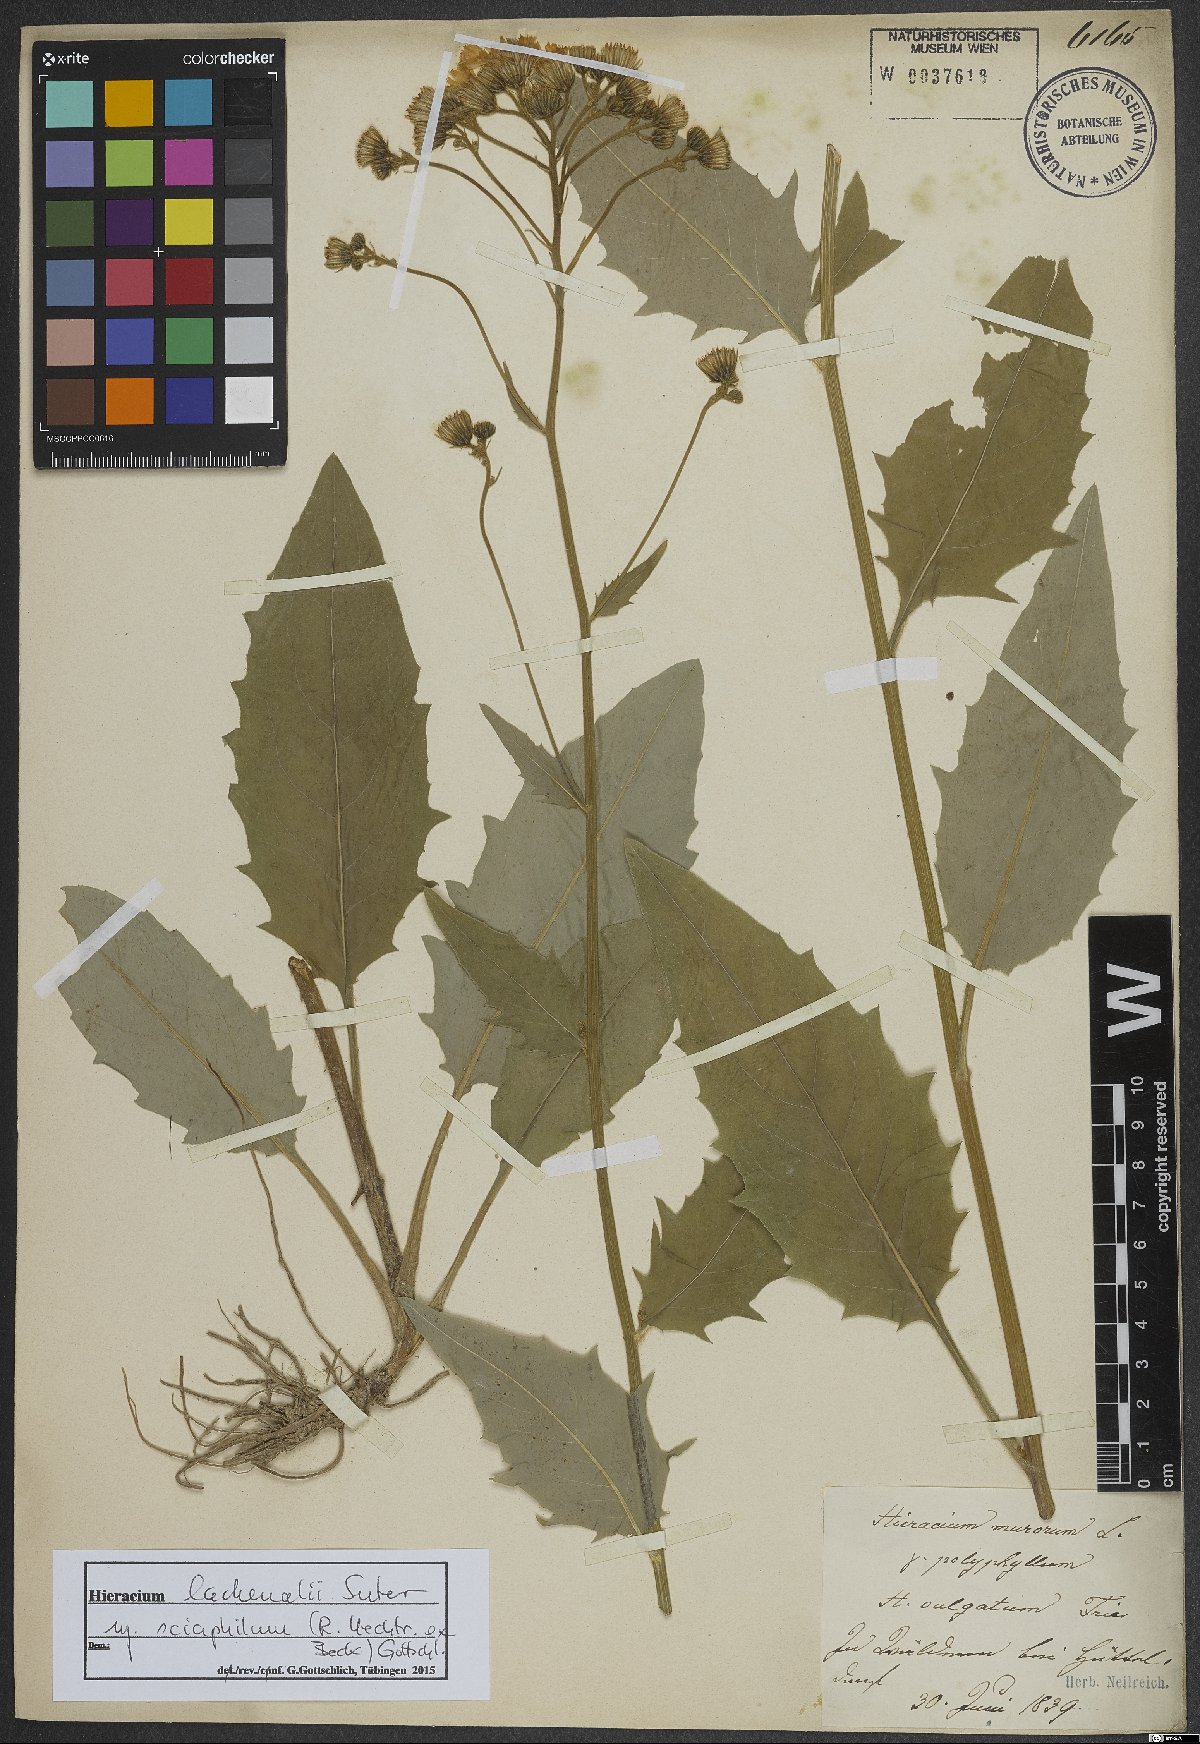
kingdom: Plantae
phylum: Tracheophyta
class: Magnoliopsida
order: Asterales
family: Asteraceae
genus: Hieracium
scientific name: Hieracium lachenalii
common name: Common hawkweed
